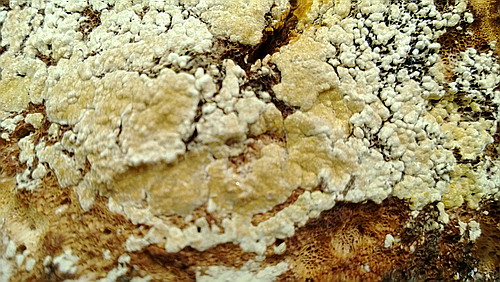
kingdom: Fungi
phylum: Ascomycota
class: Sordariomycetes
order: Hypocreales
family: Hypocreaceae
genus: Trichoderma
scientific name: Trichoderma pulvinatum
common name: snyltende kødkerne
